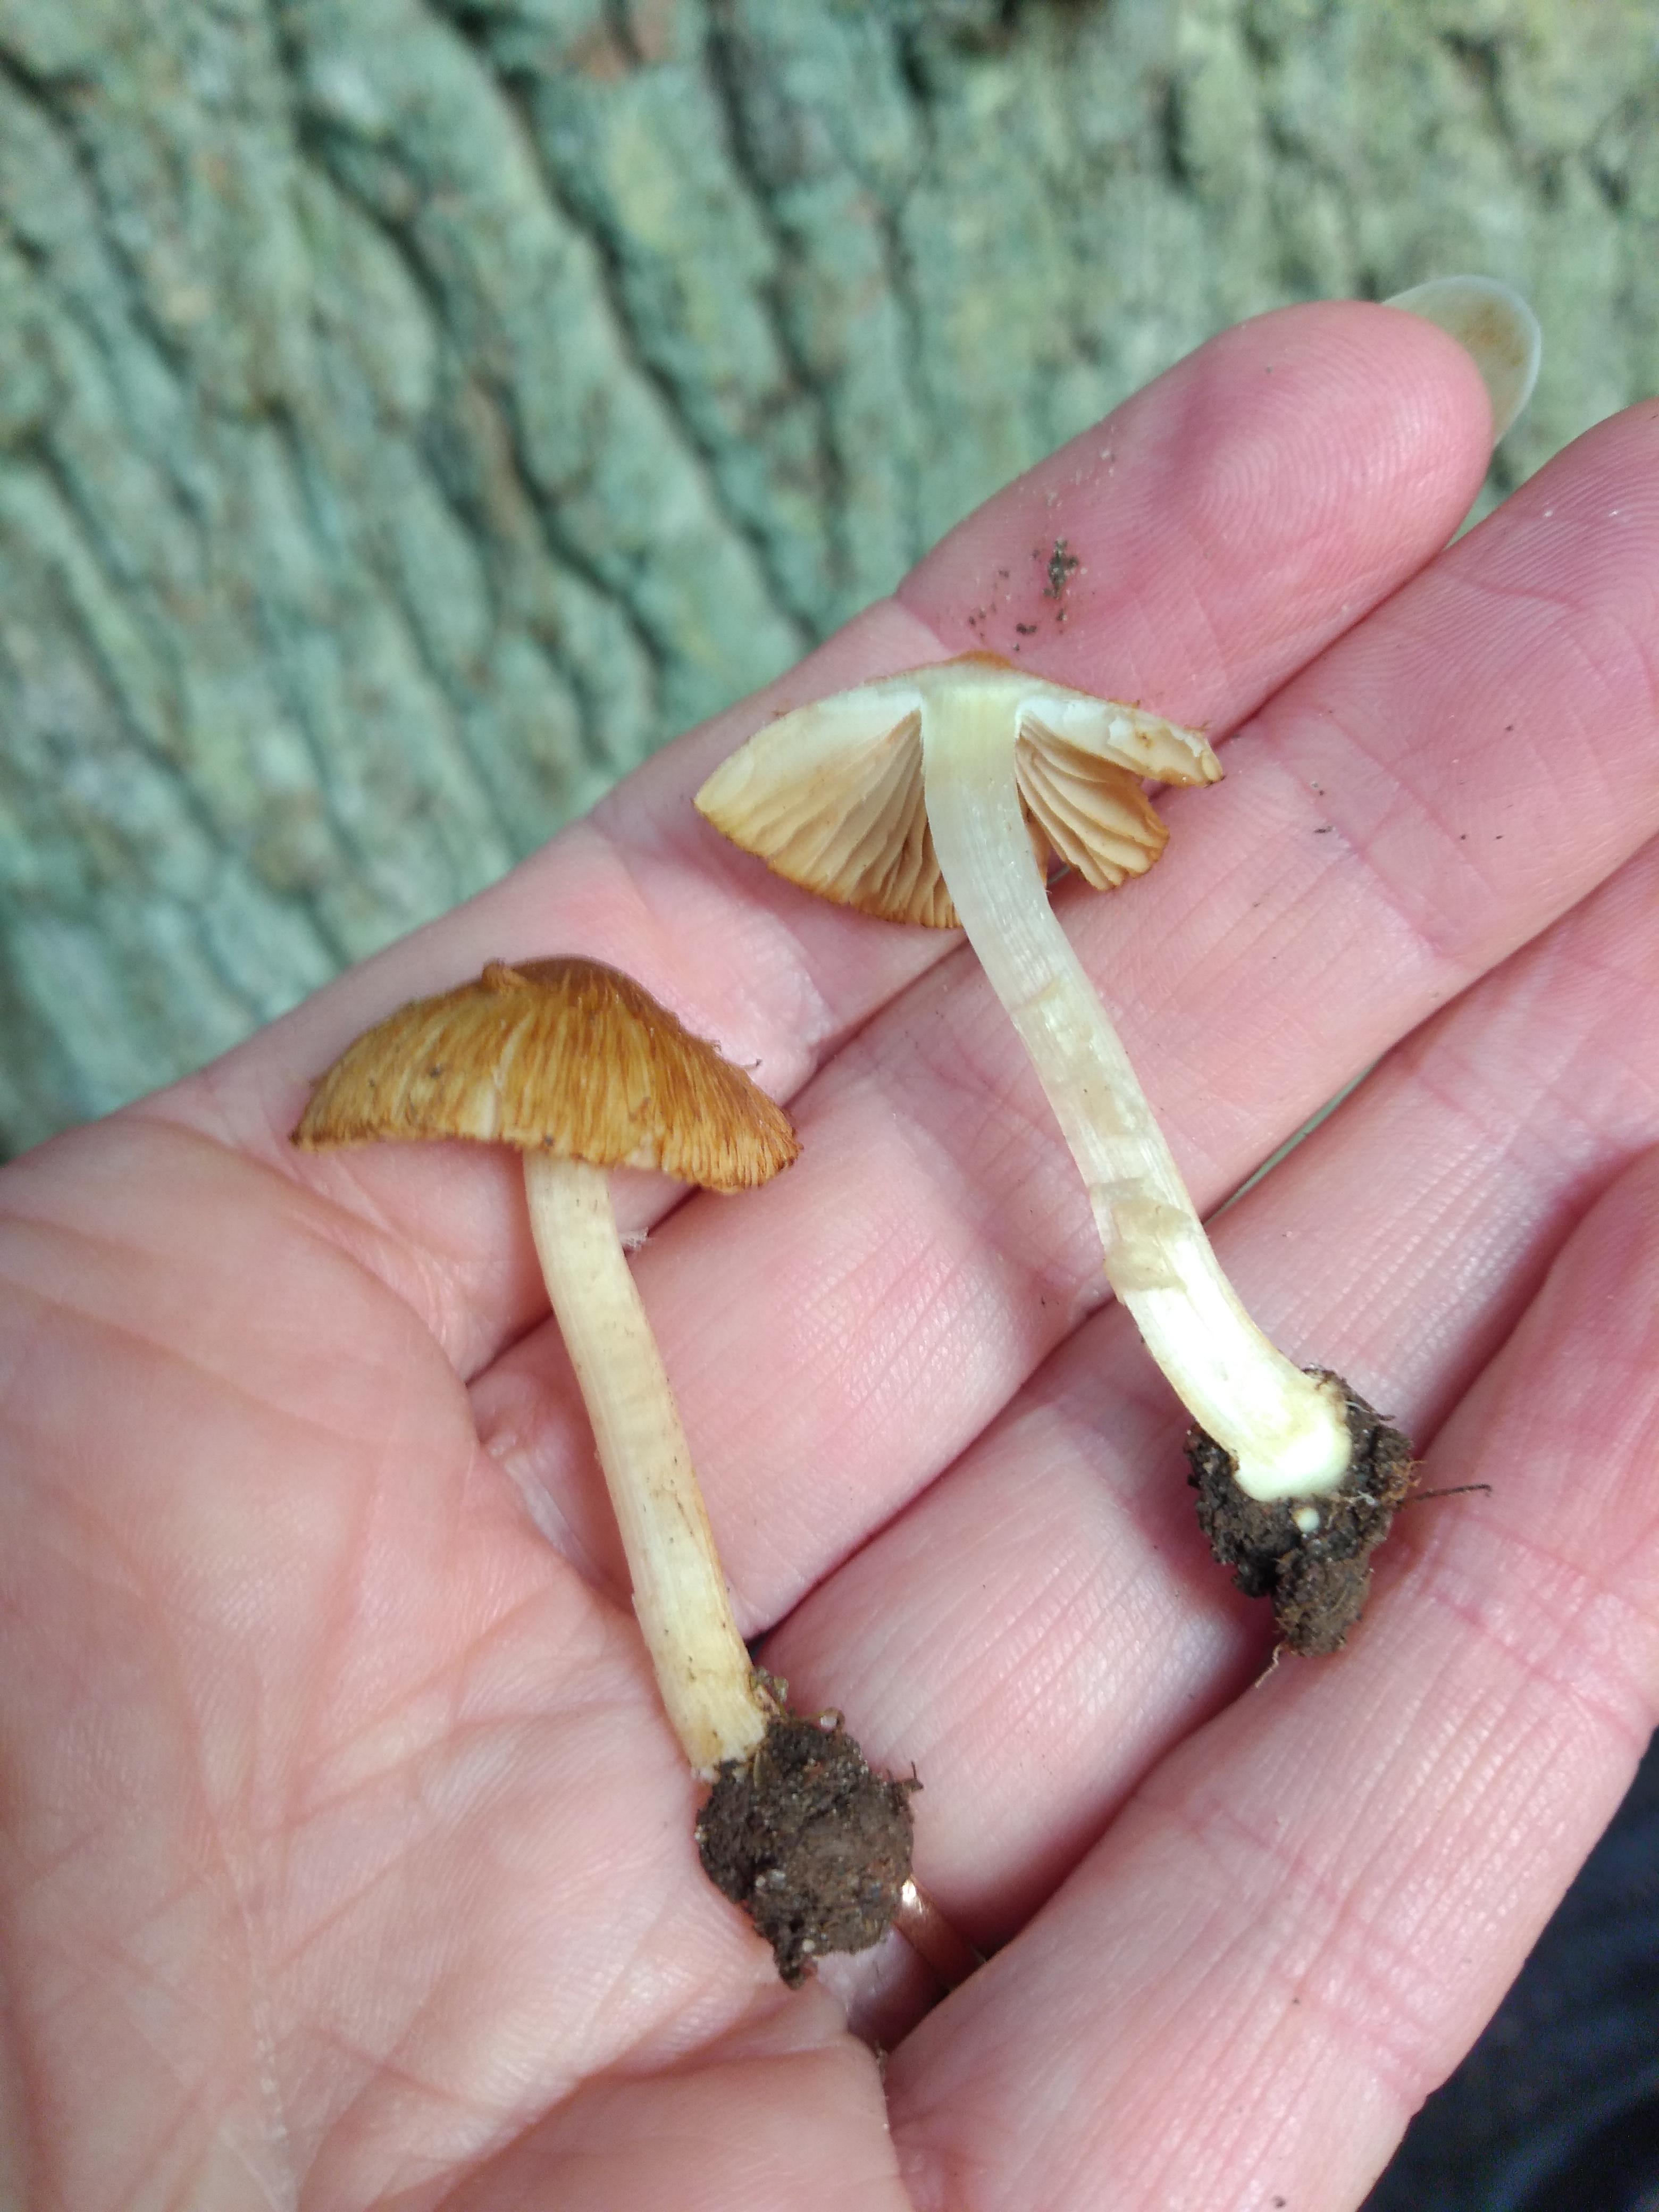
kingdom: Fungi
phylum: Basidiomycota
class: Agaricomycetes
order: Agaricales
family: Inocybaceae
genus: Inocybe
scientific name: Inocybe
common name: trævlhat
